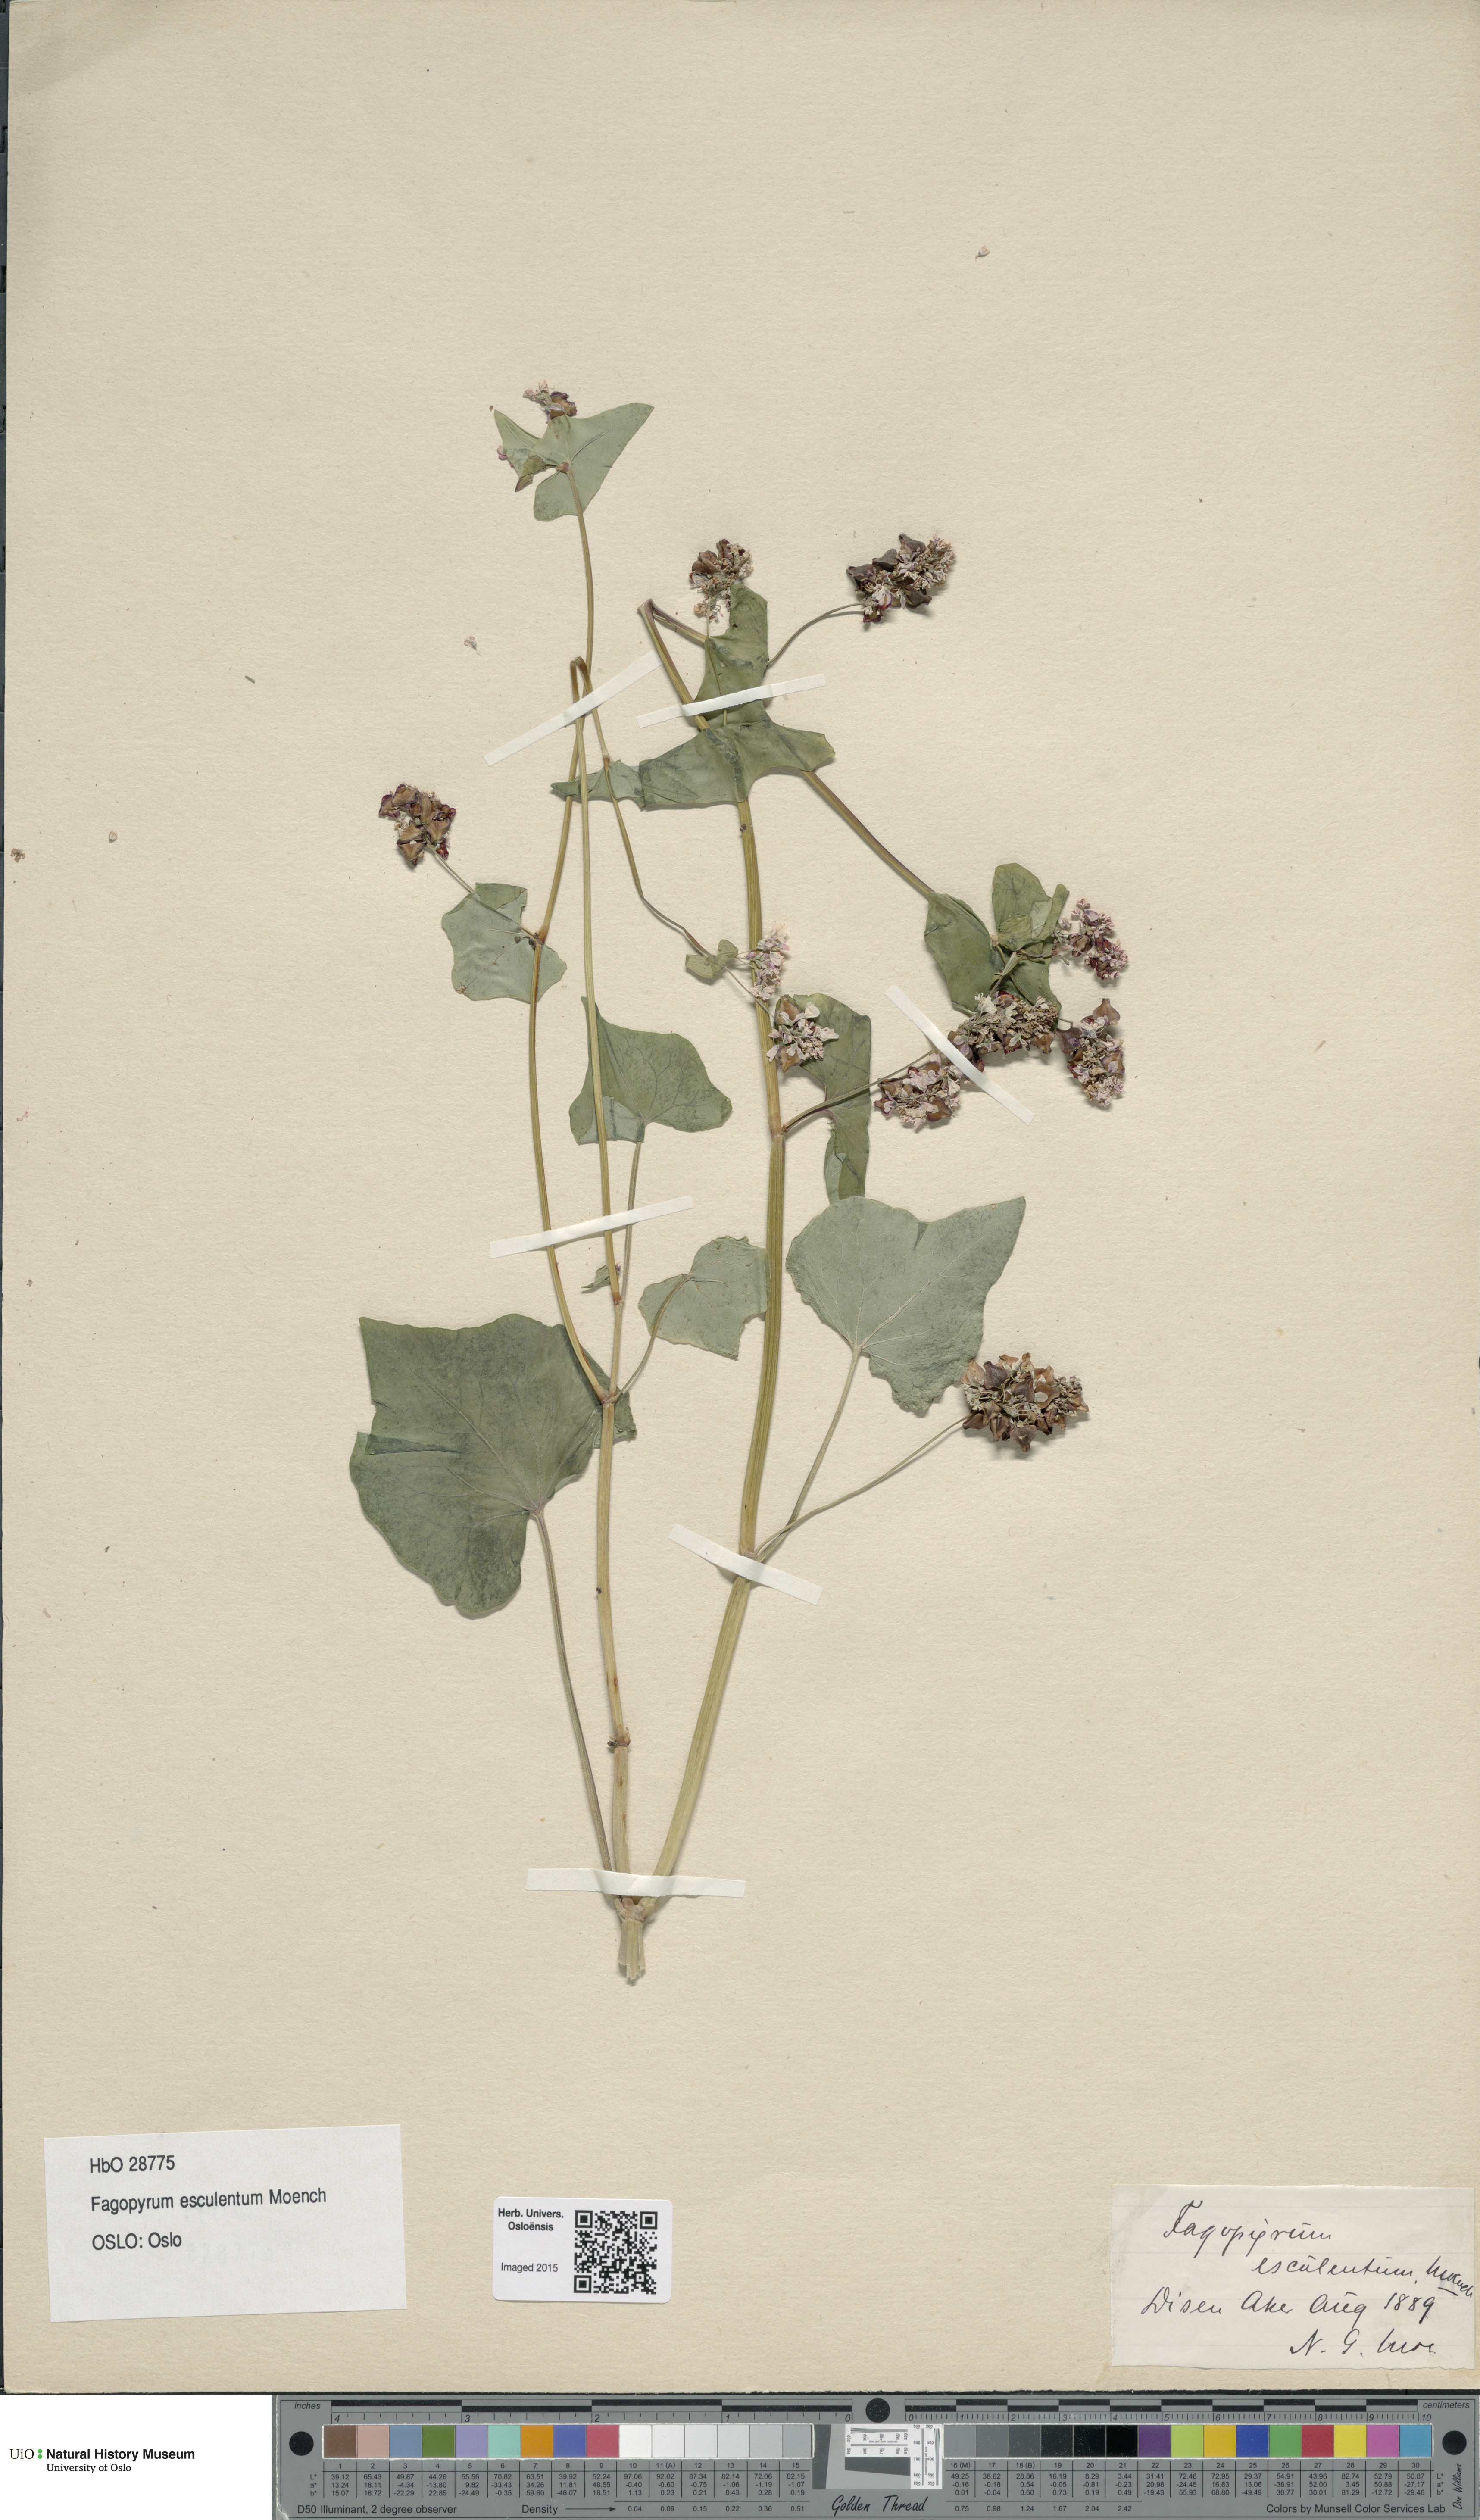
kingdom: Plantae
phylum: Tracheophyta
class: Magnoliopsida
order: Caryophyllales
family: Polygonaceae
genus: Fagopyrum
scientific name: Fagopyrum esculentum
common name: Buckwheat
